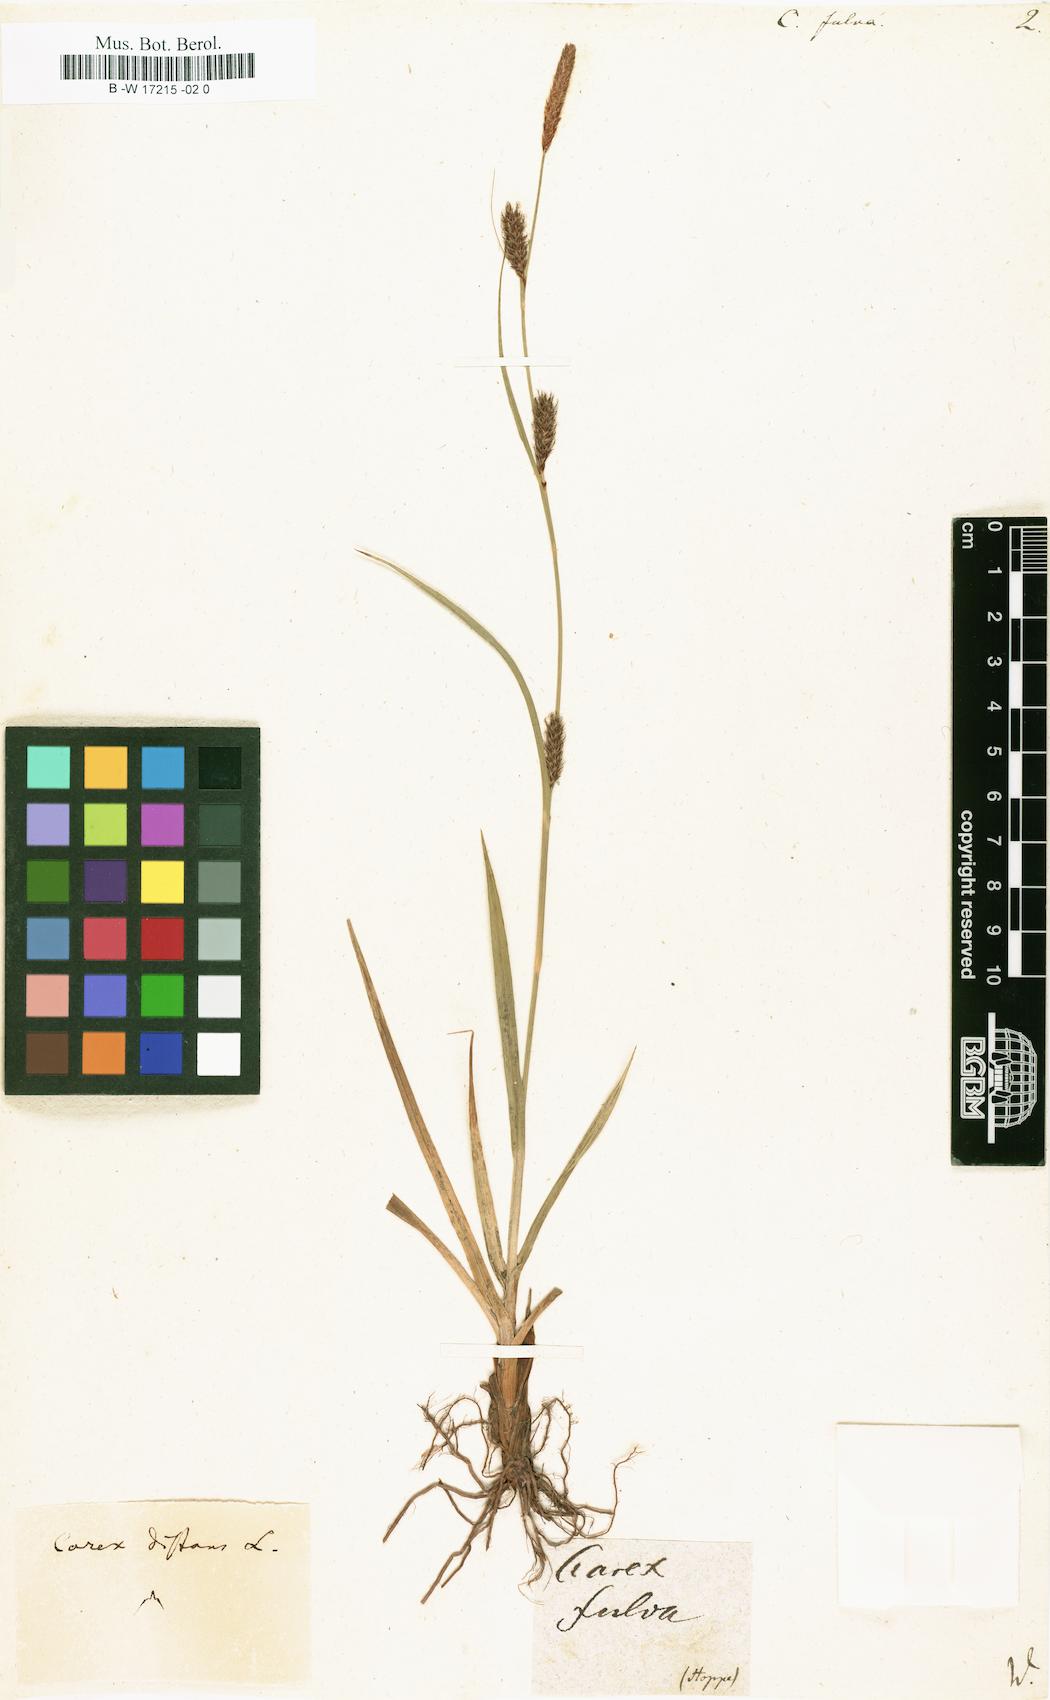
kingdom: Plantae
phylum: Tracheophyta
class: Liliopsida
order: Poales
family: Cyperaceae
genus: Carex
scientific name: Carex fulva
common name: Leutz's sedge
